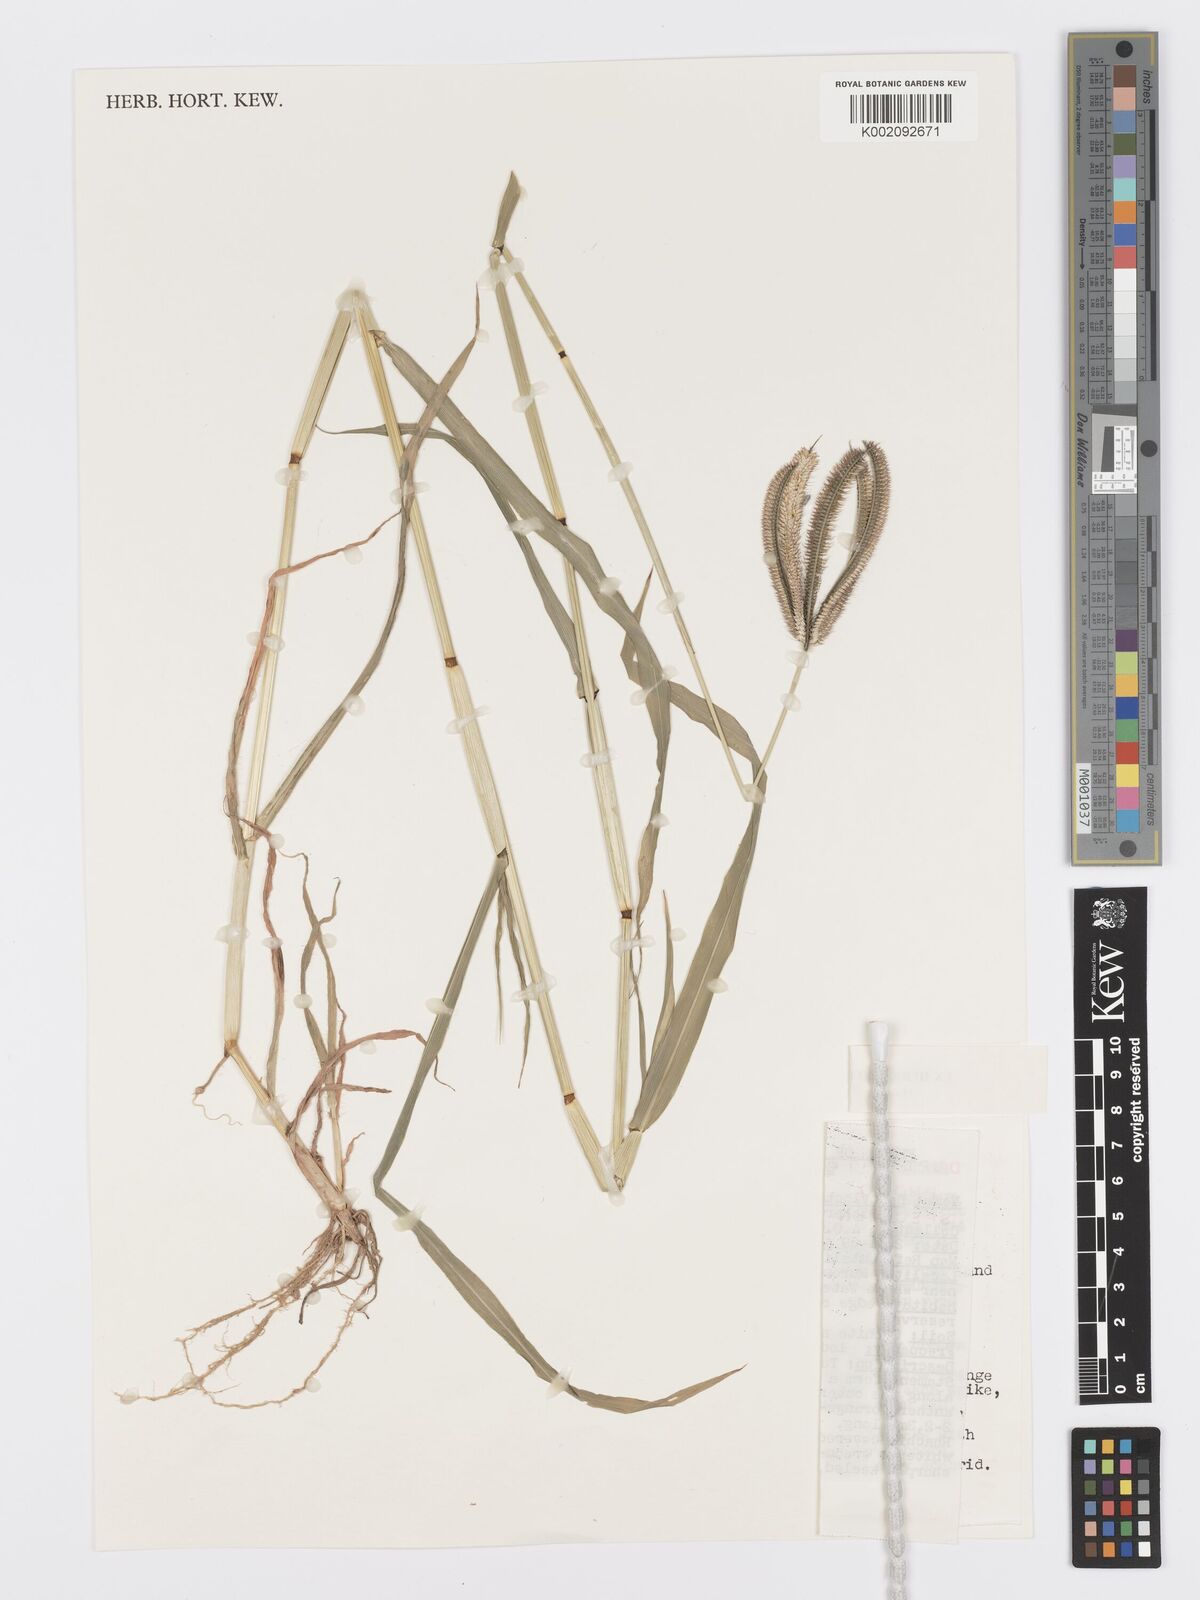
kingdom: Plantae
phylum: Tracheophyta
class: Liliopsida
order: Poales
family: Poaceae
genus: Dactyloctenium
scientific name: Dactyloctenium giganteum
